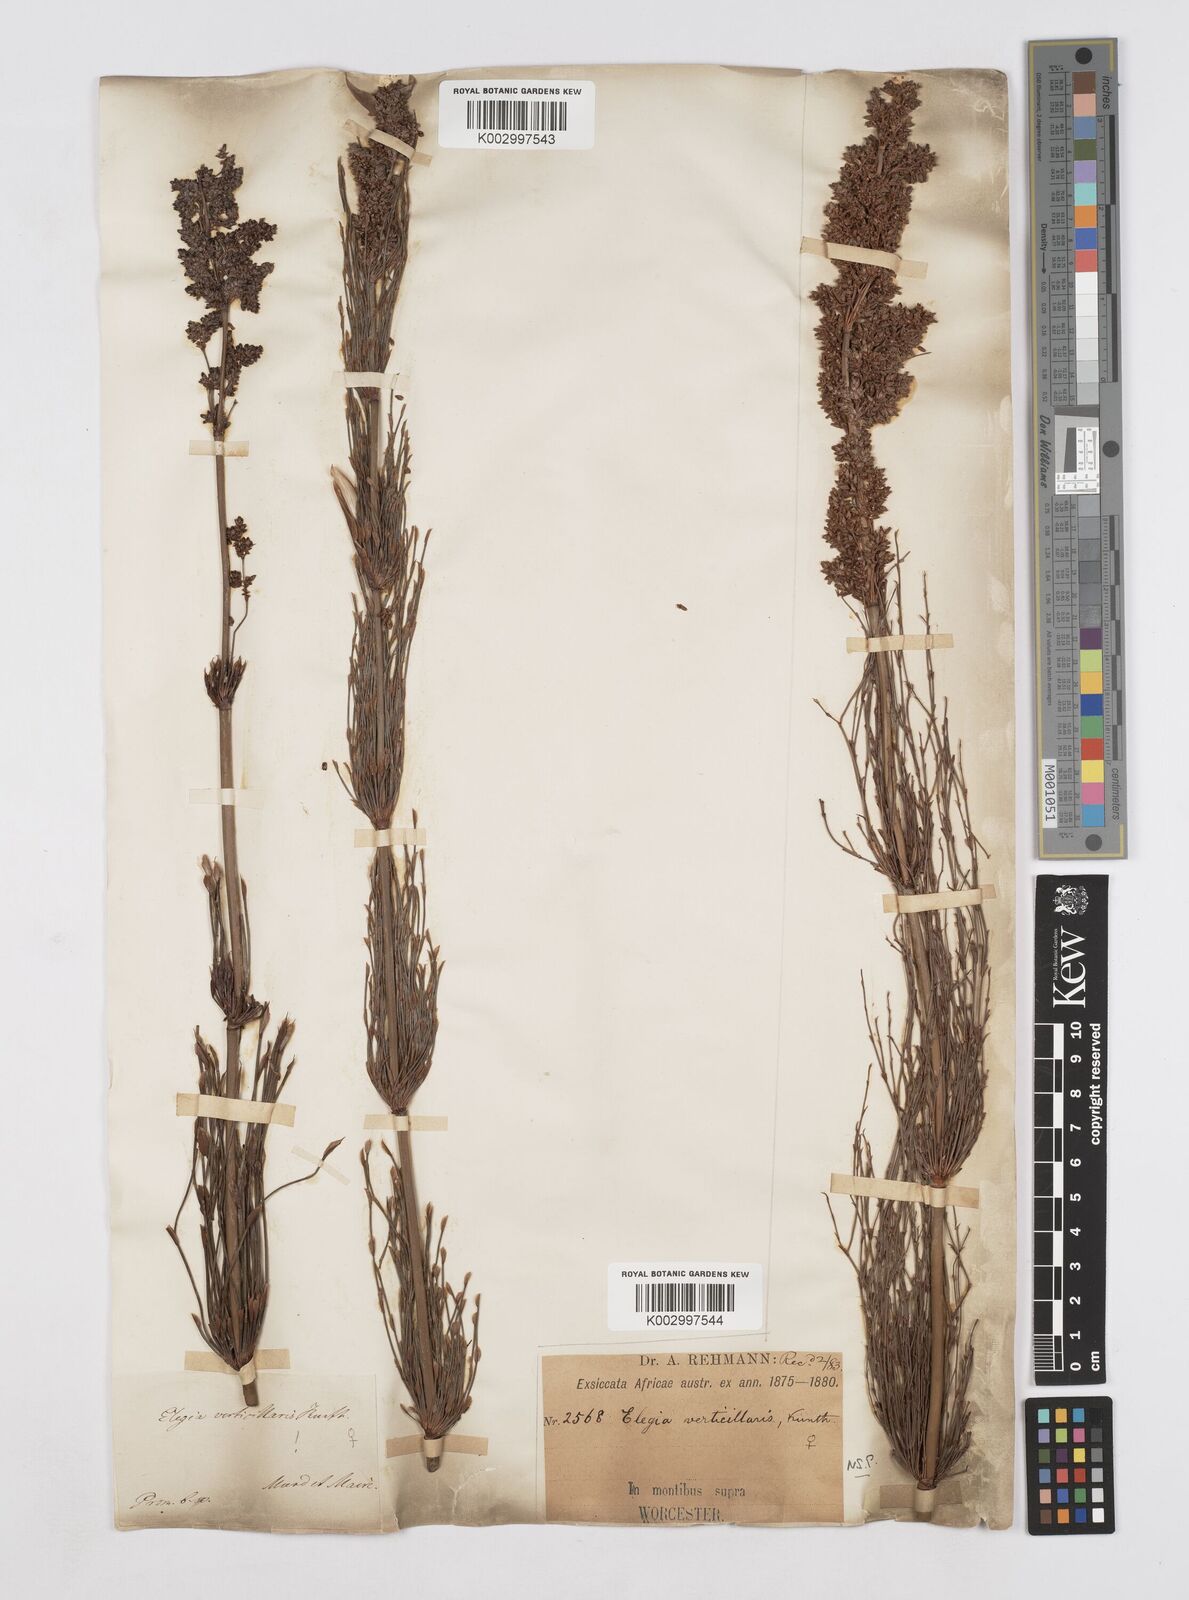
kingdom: Plantae
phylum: Tracheophyta
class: Liliopsida
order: Poales
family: Restionaceae
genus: Elegia
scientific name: Elegia capensis
